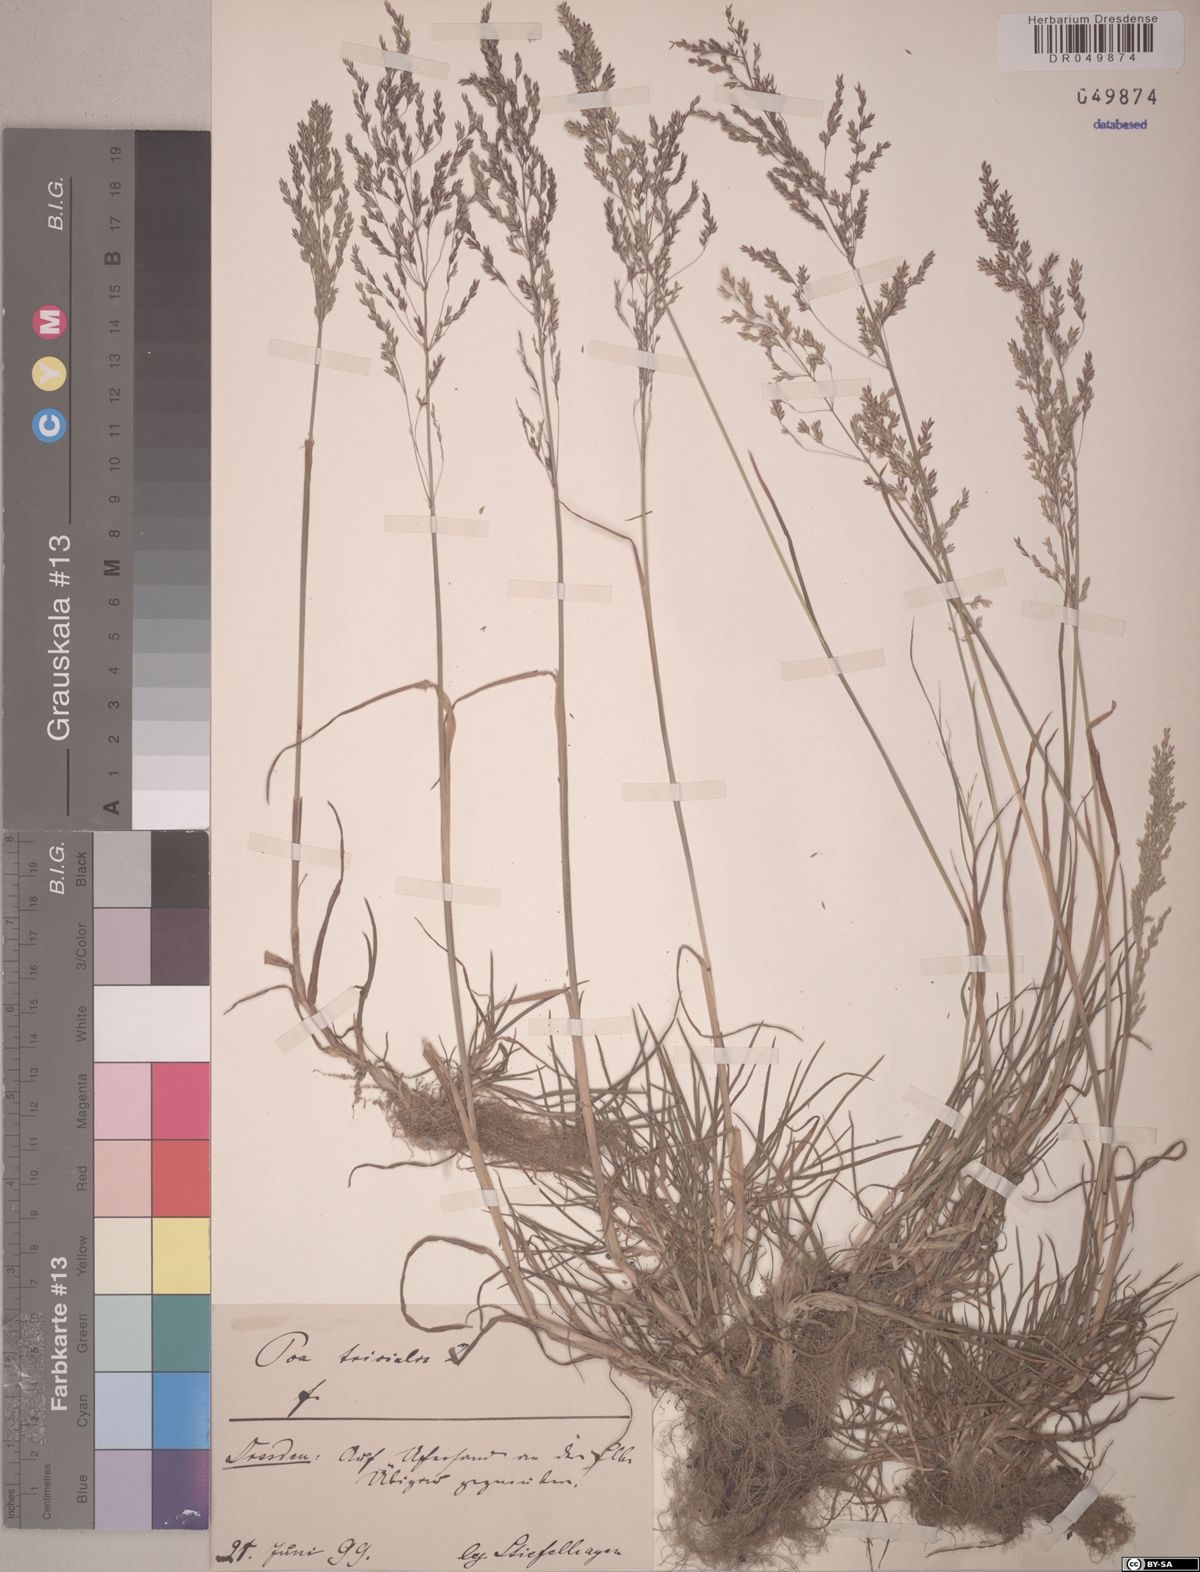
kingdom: Plantae
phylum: Tracheophyta
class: Liliopsida
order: Poales
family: Poaceae
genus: Poa
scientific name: Poa trivialis
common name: Rough bluegrass
